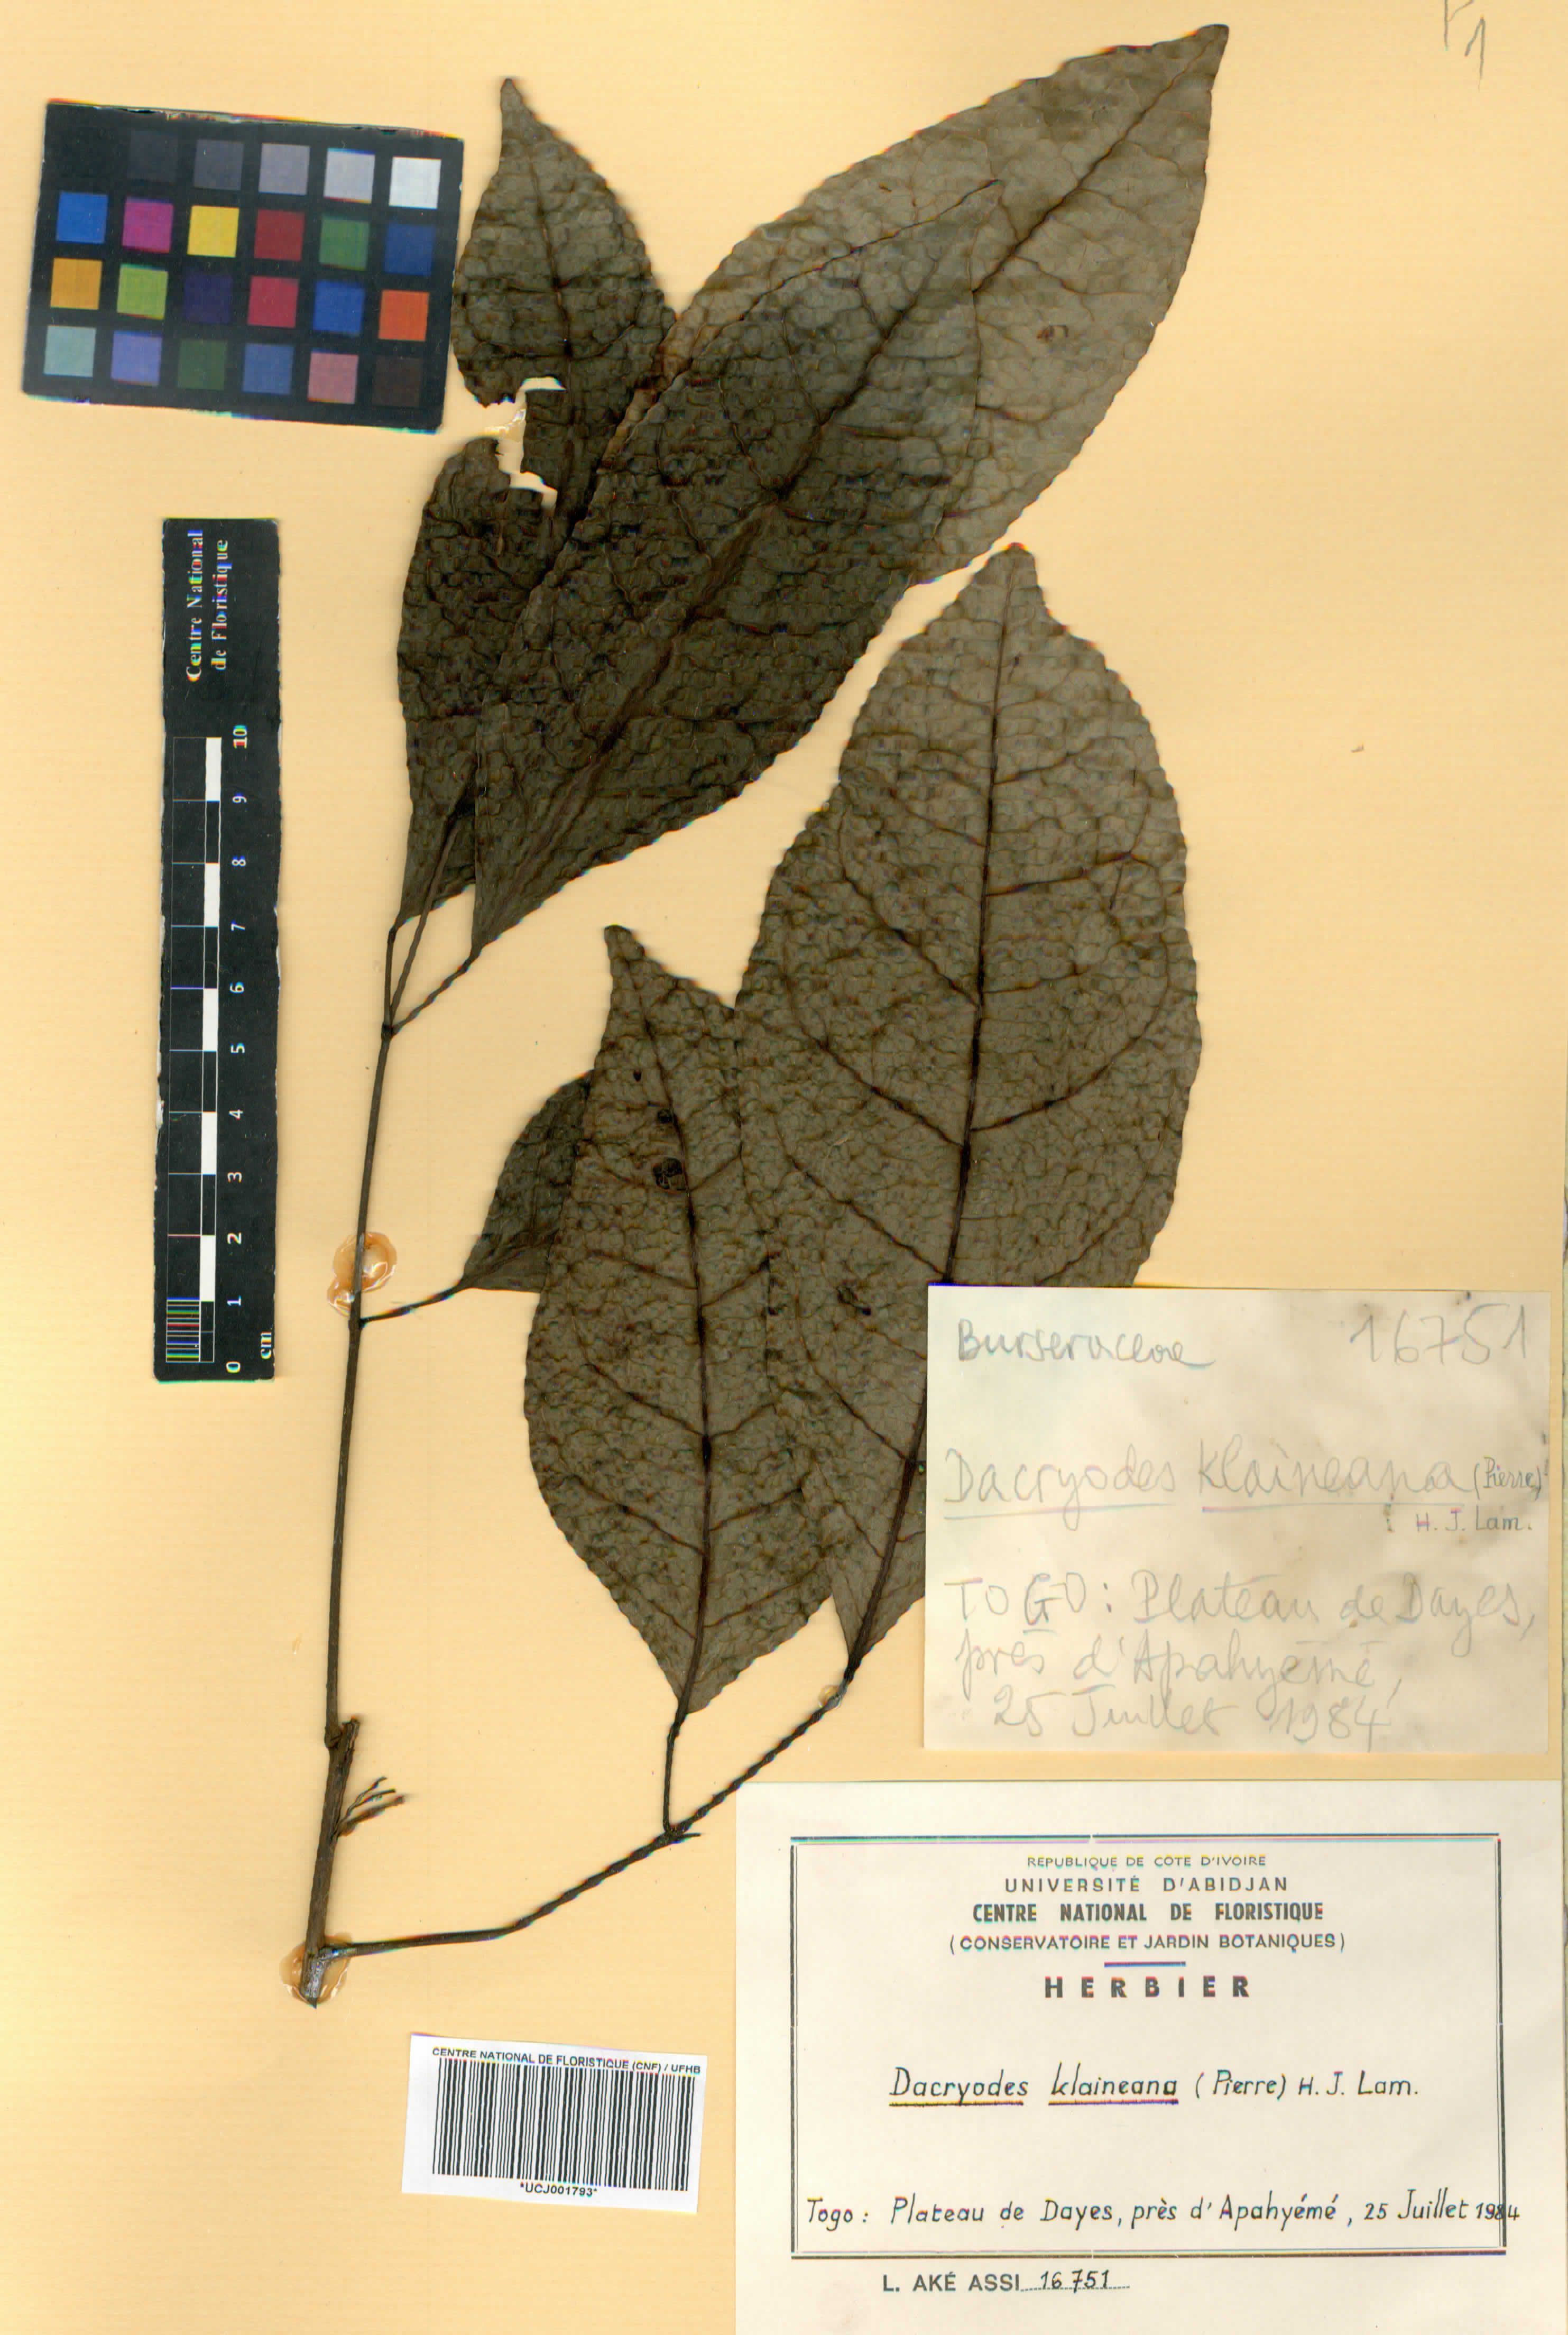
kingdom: Plantae
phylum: Tracheophyta
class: Magnoliopsida
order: Sapindales
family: Burseraceae
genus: Pachylobus
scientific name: Pachylobus klaineana
